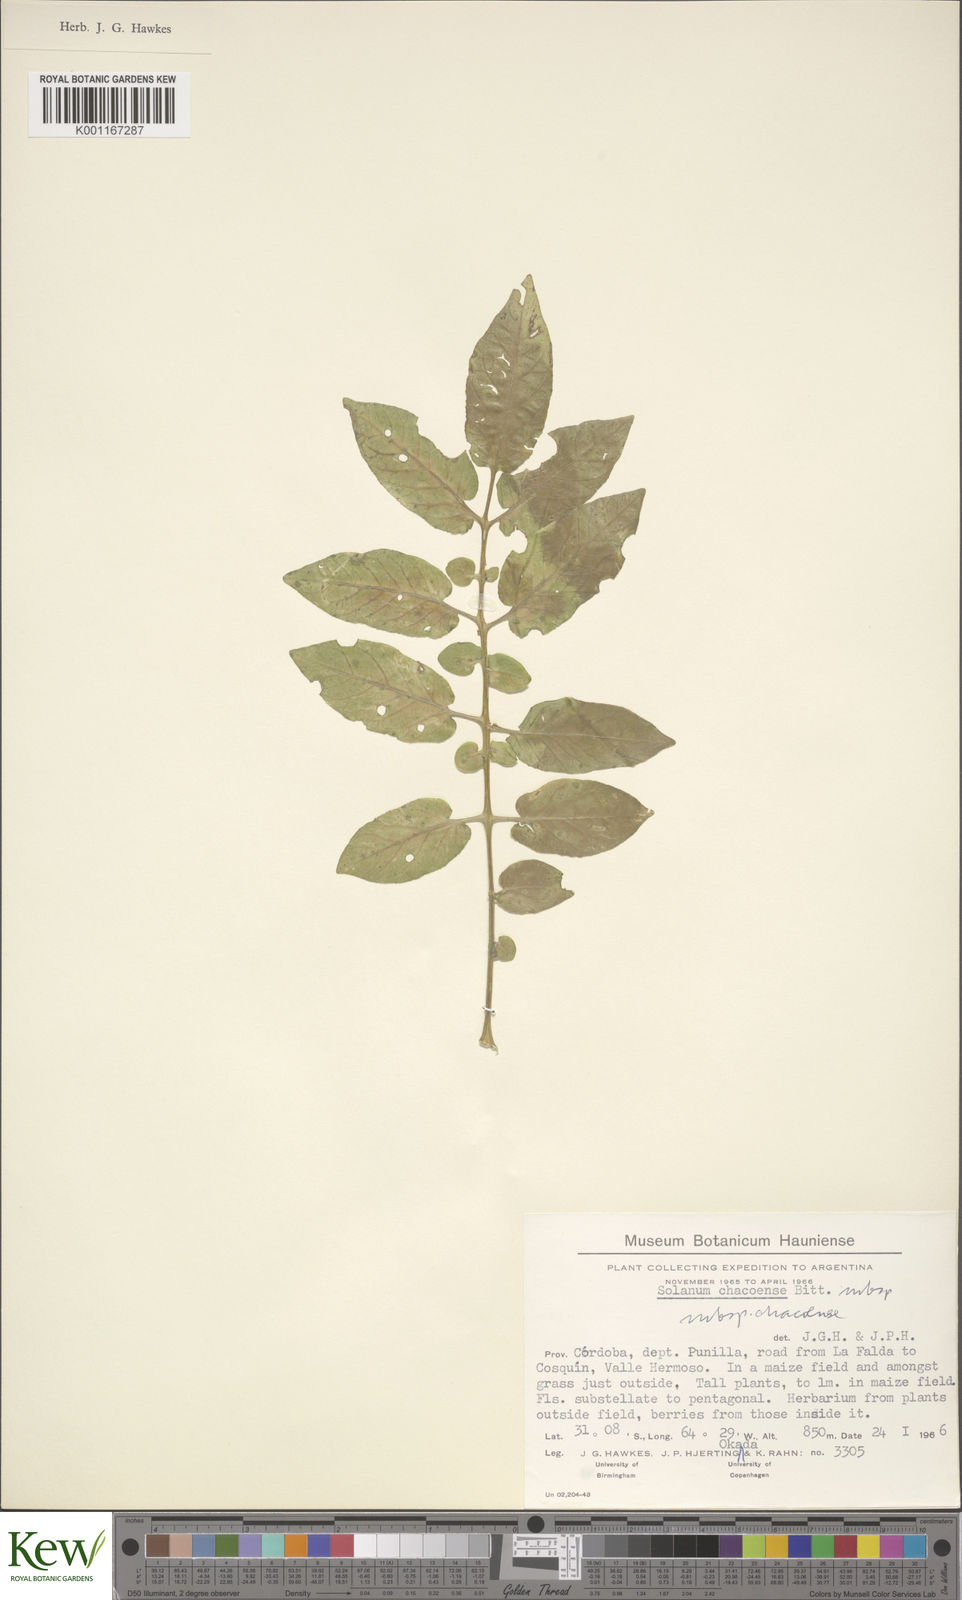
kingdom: Plantae
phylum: Tracheophyta
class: Magnoliopsida
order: Solanales
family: Solanaceae
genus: Solanum
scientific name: Solanum chacoense
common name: Chaco potato
